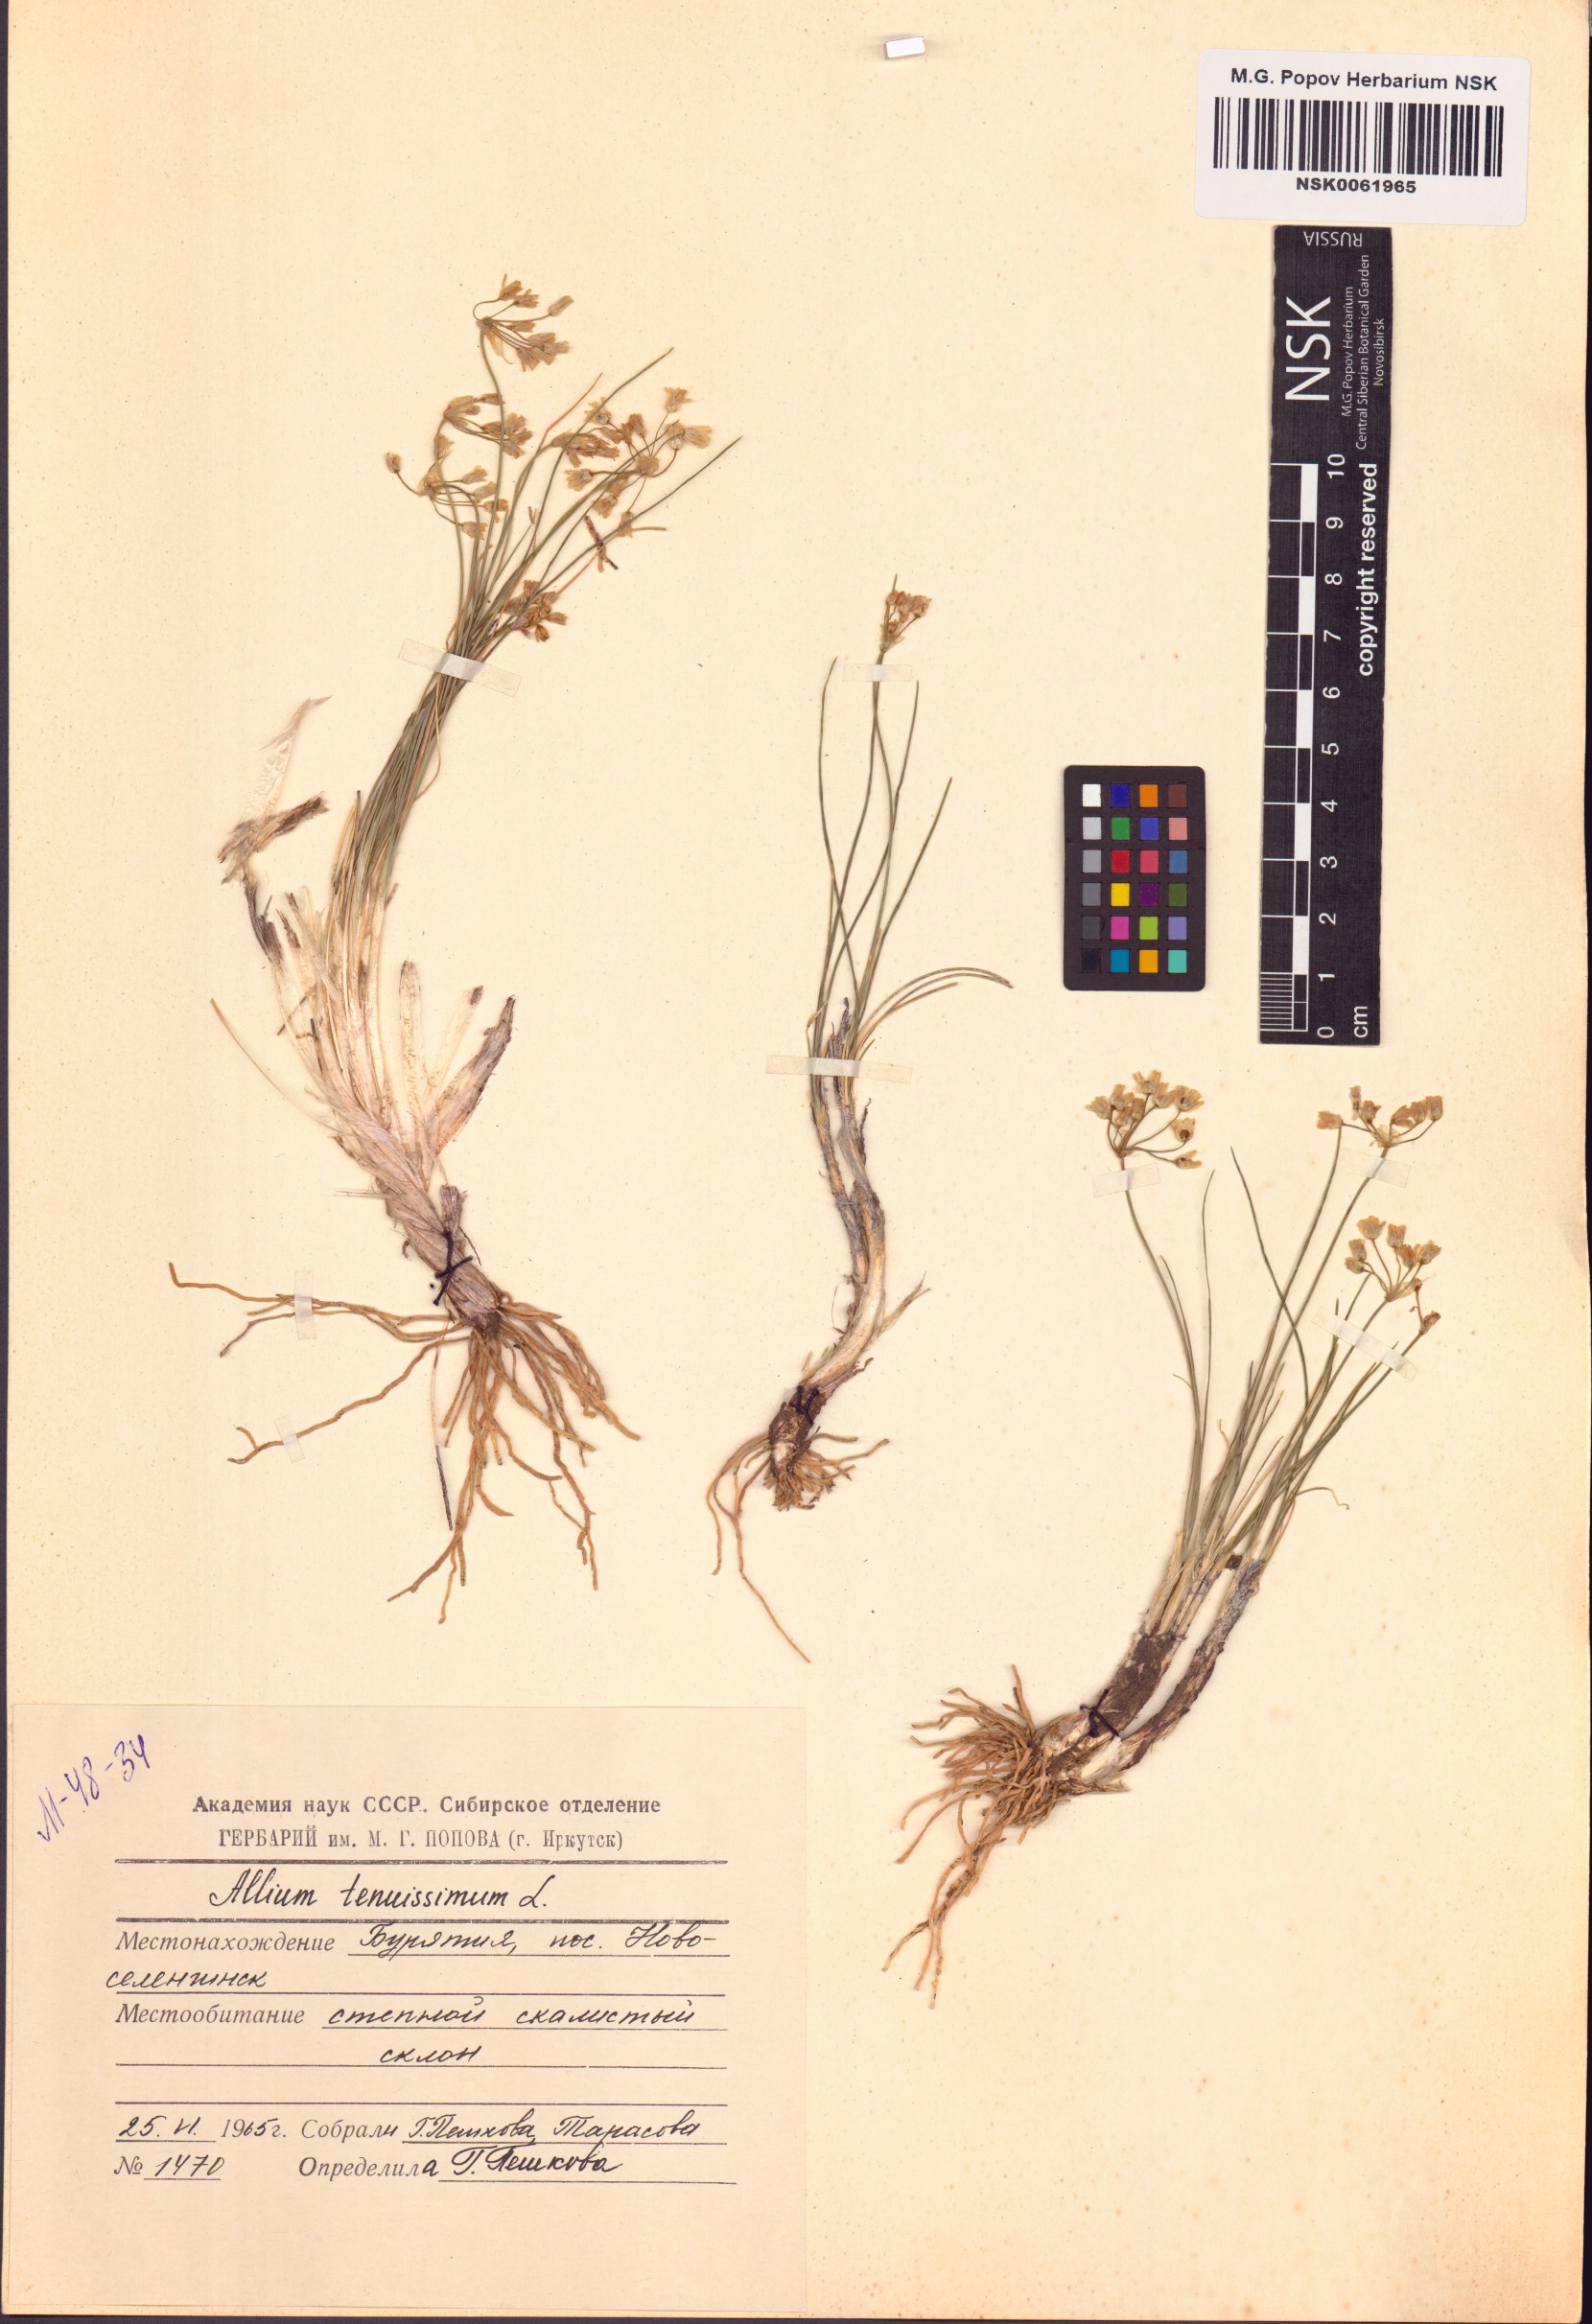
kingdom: Plantae
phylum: Tracheophyta
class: Liliopsida
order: Asparagales
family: Amaryllidaceae
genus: Allium
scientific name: Allium tenuissimum
